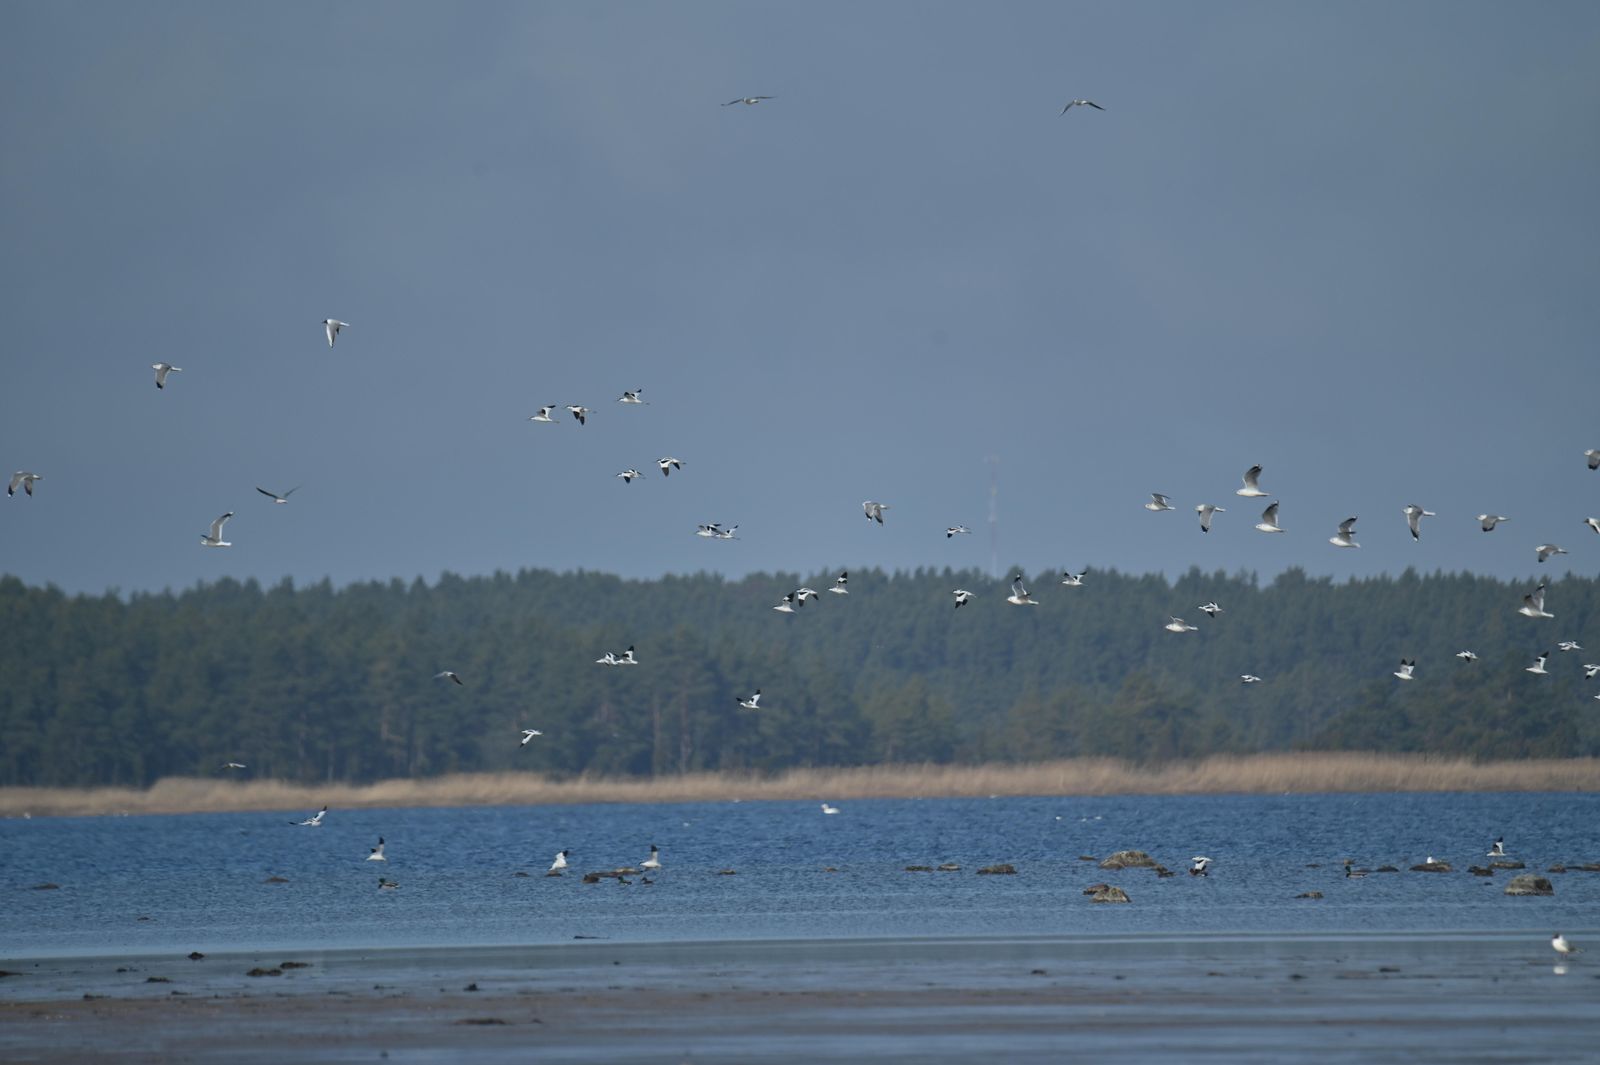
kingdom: Animalia
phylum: Chordata
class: Aves
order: Charadriiformes
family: Recurvirostridae
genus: Recurvirostra
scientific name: Recurvirostra avosetta
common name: Pied avocet
